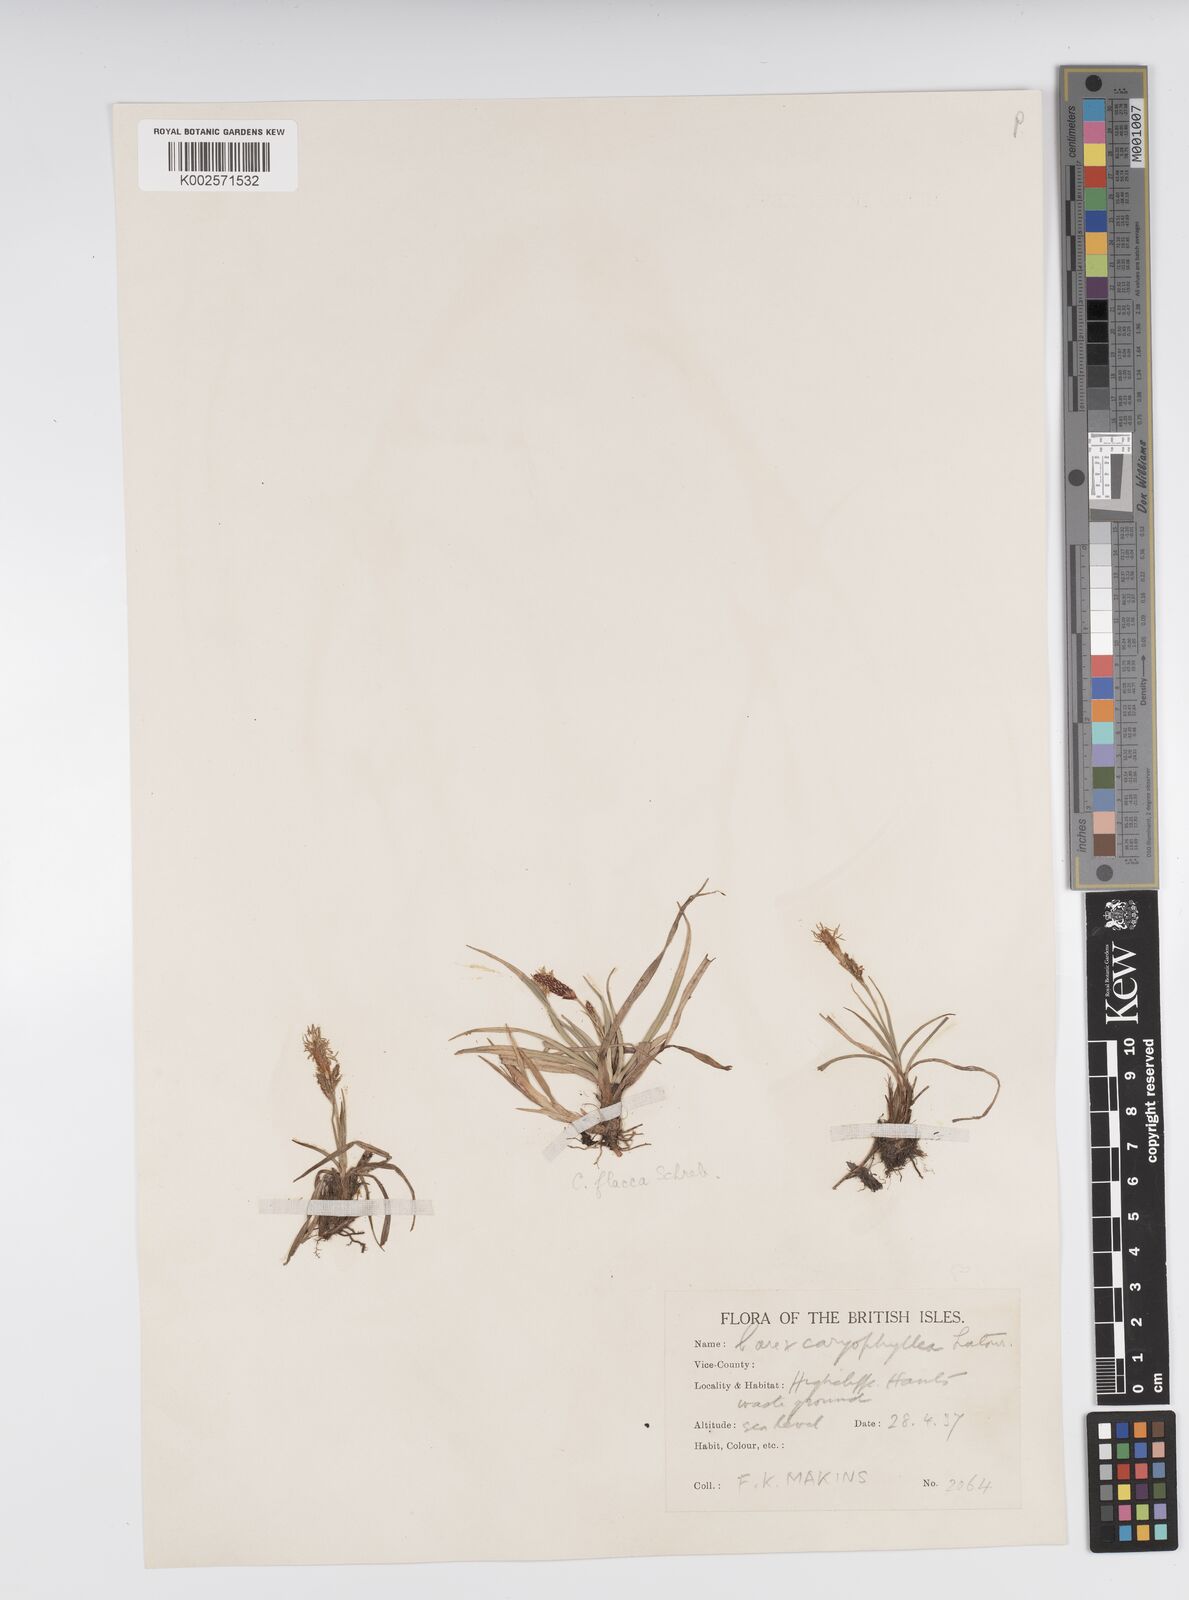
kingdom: Plantae
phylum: Tracheophyta
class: Liliopsida
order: Poales
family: Cyperaceae
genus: Carex
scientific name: Carex caryophyllea
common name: Spring sedge
